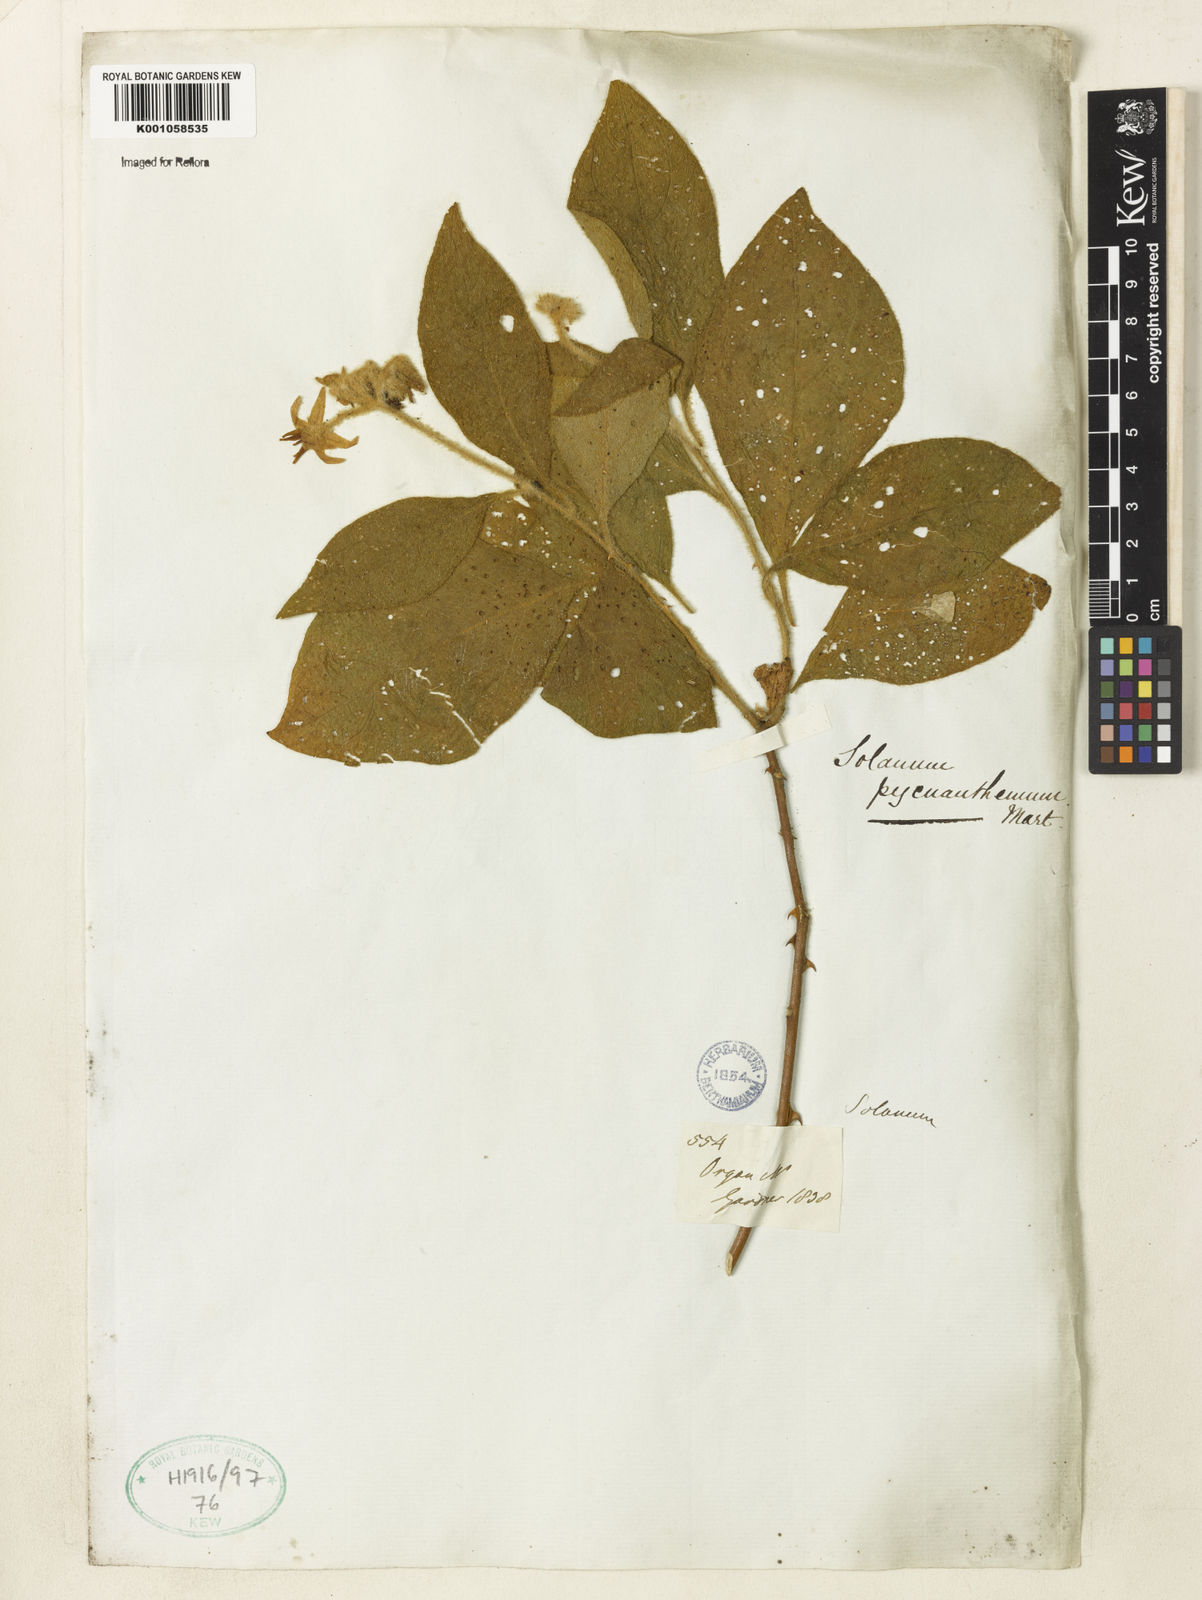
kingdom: Plantae
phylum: Tracheophyta
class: Magnoliopsida
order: Solanales
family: Solanaceae
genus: Solanum
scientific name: Solanum pycnanthemum
